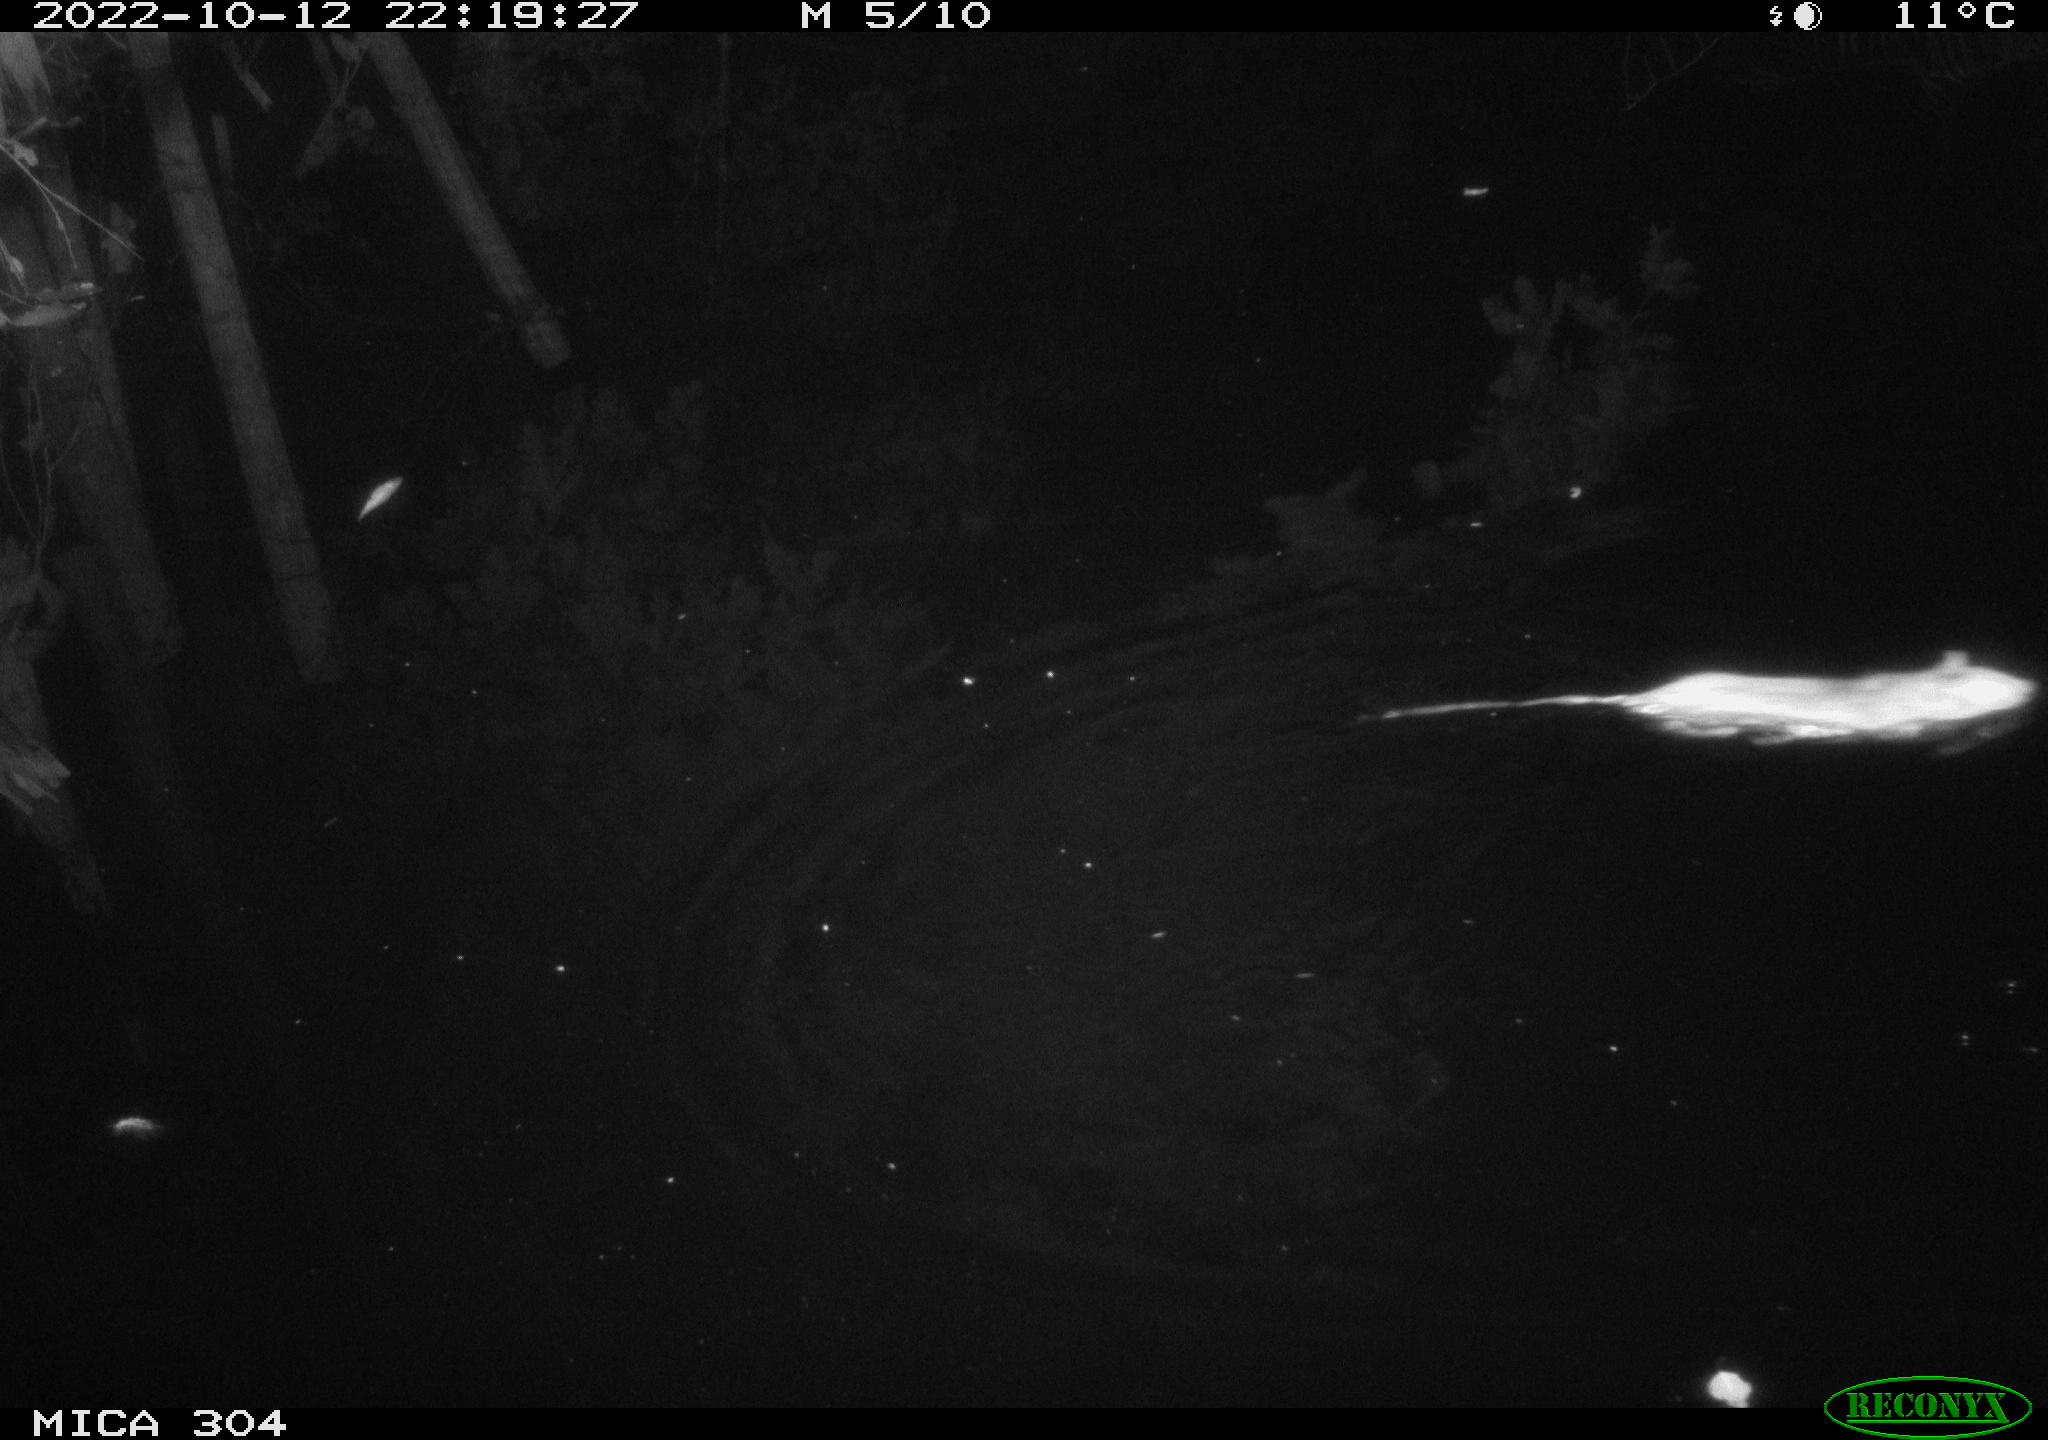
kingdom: Animalia
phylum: Chordata
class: Mammalia
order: Rodentia
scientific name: Rodentia
